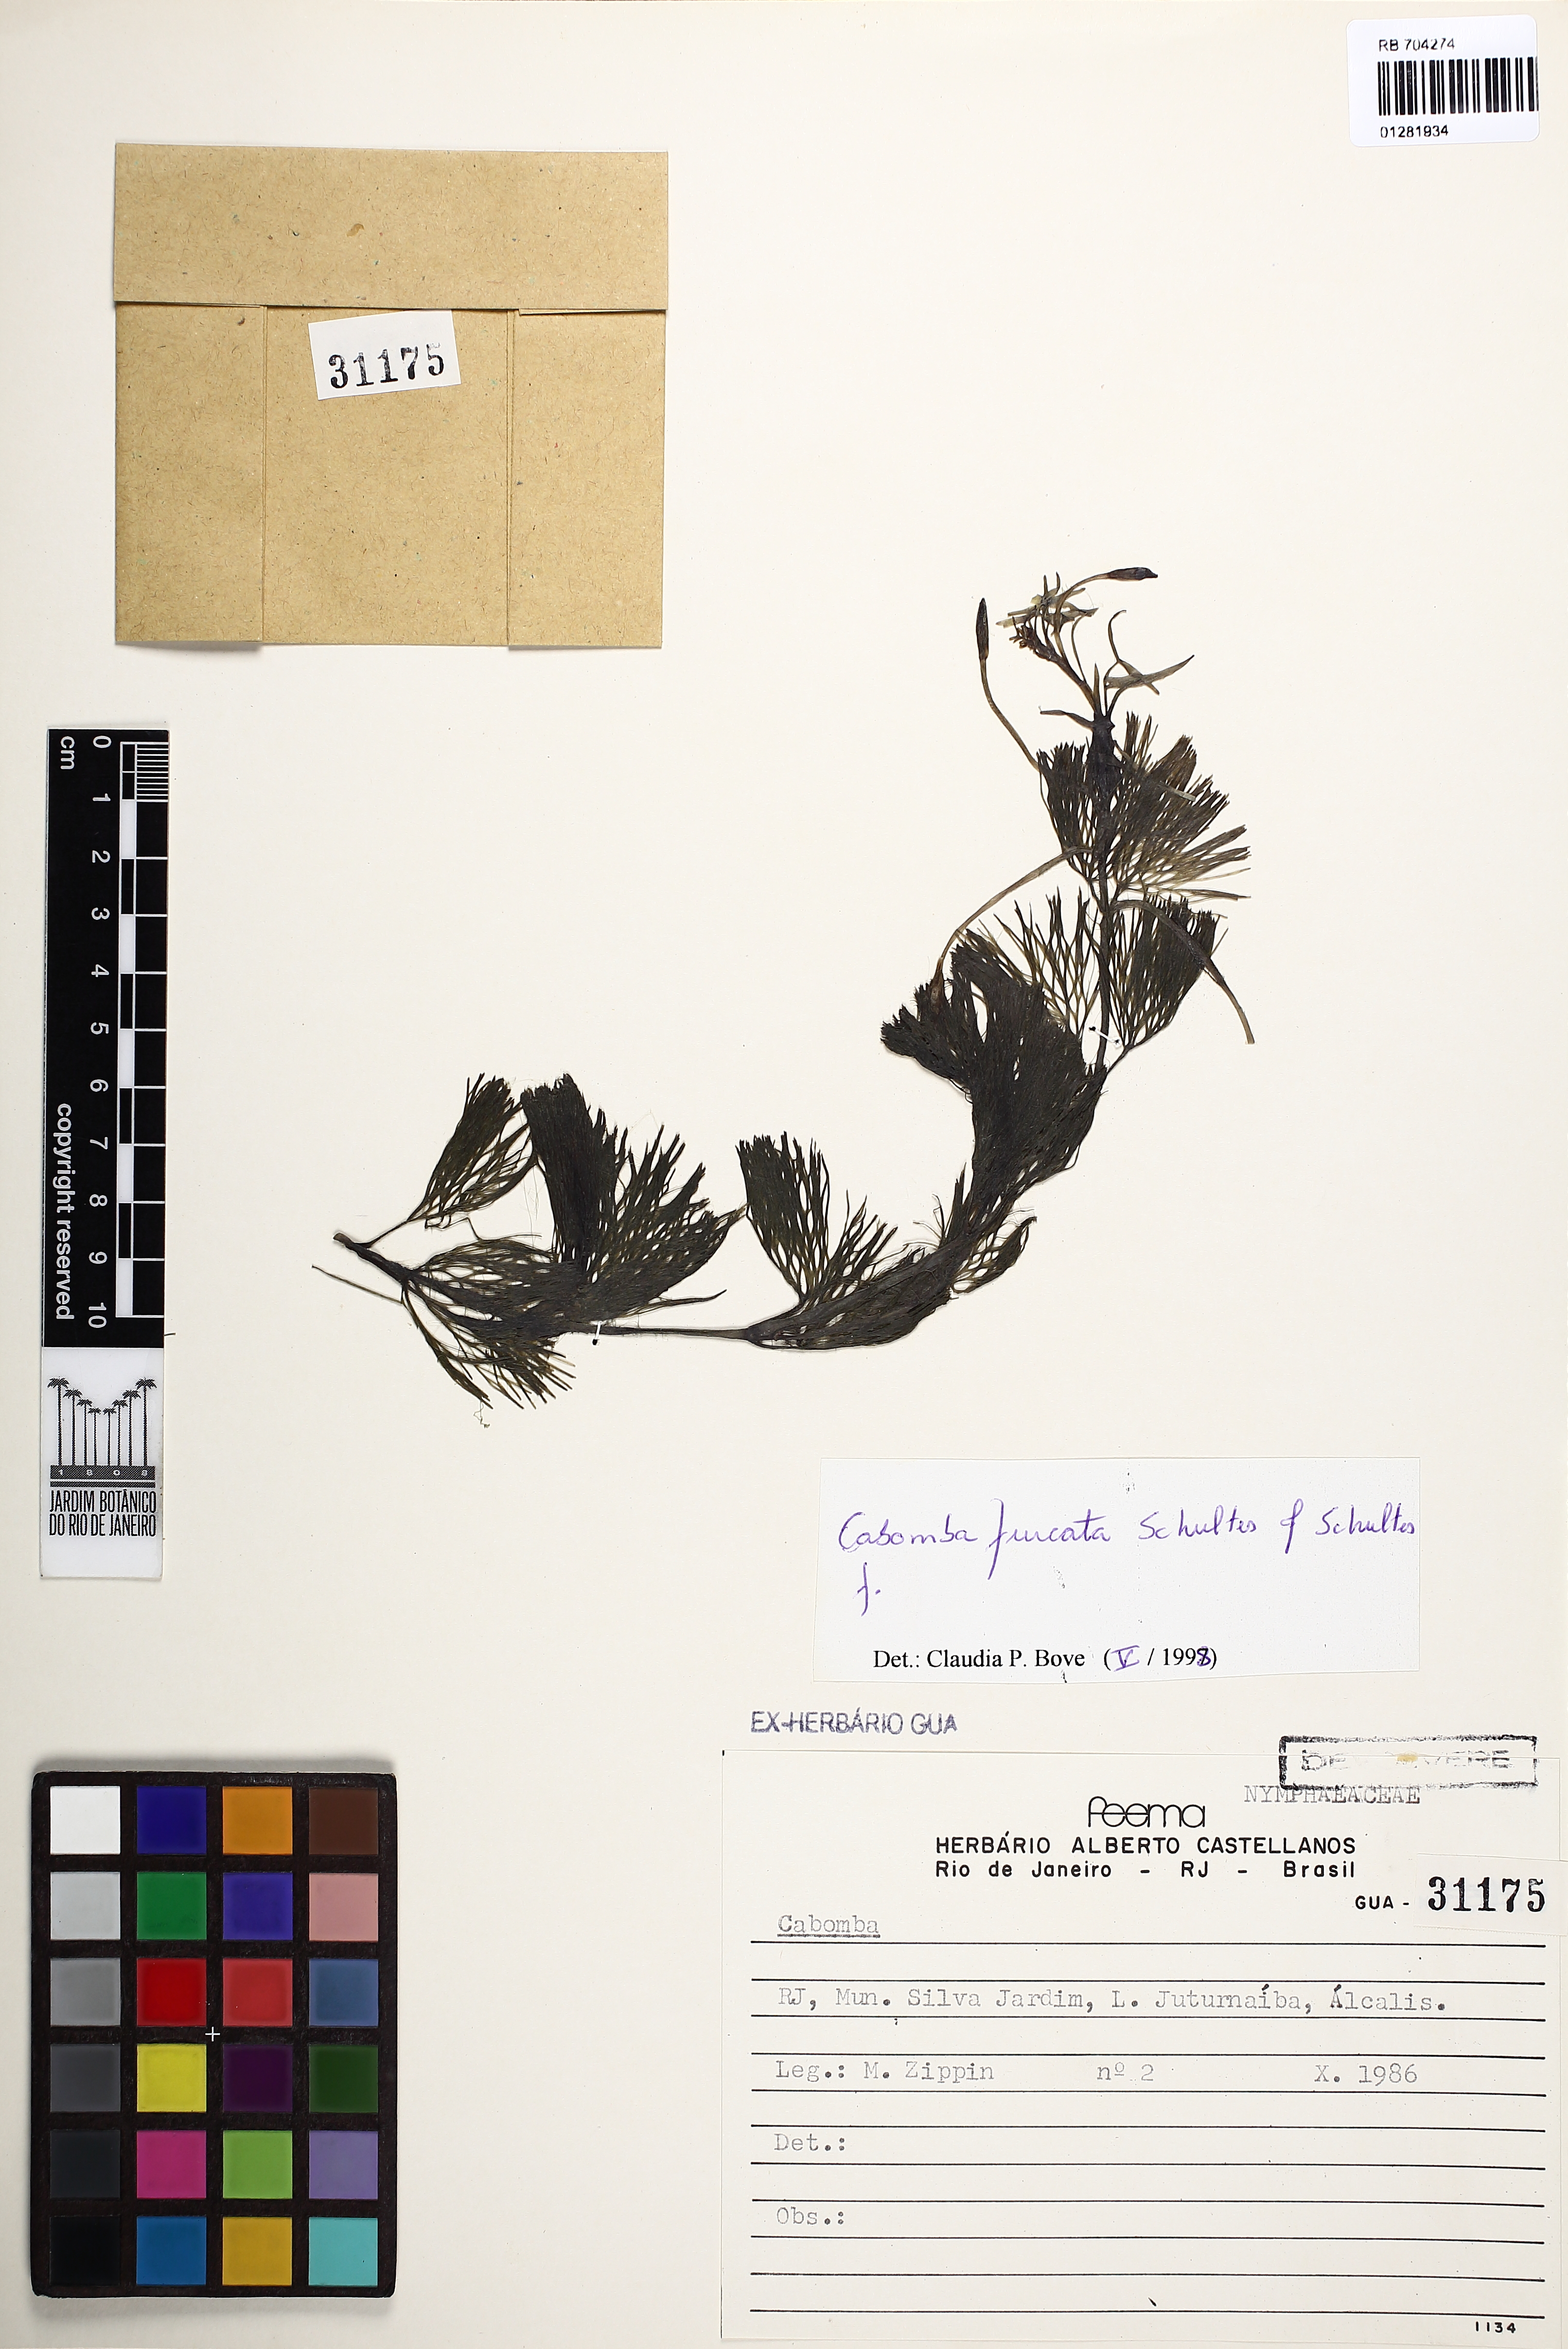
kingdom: Plantae
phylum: Tracheophyta
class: Magnoliopsida
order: Nymphaeales
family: Cabombaceae
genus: Cabomba
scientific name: Cabomba furcata
